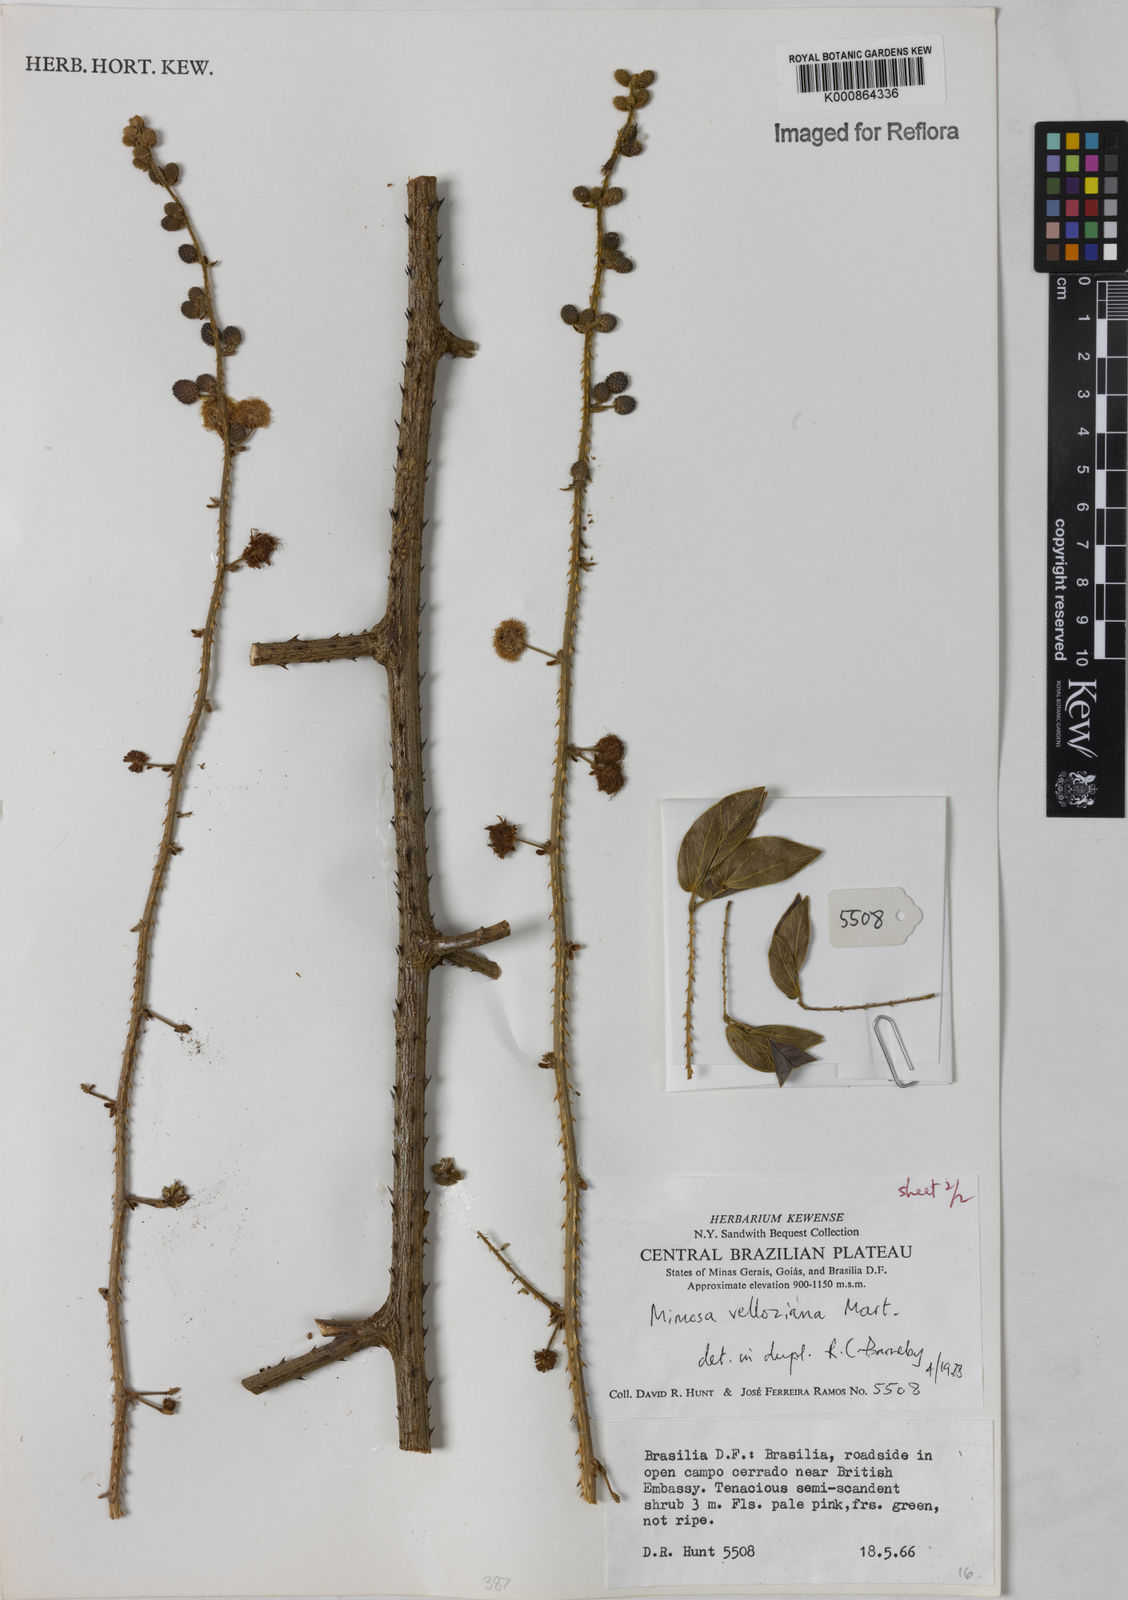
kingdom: Plantae
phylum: Tracheophyta
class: Magnoliopsida
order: Fabales
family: Fabaceae
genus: Mimosa
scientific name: Mimosa velloziana
